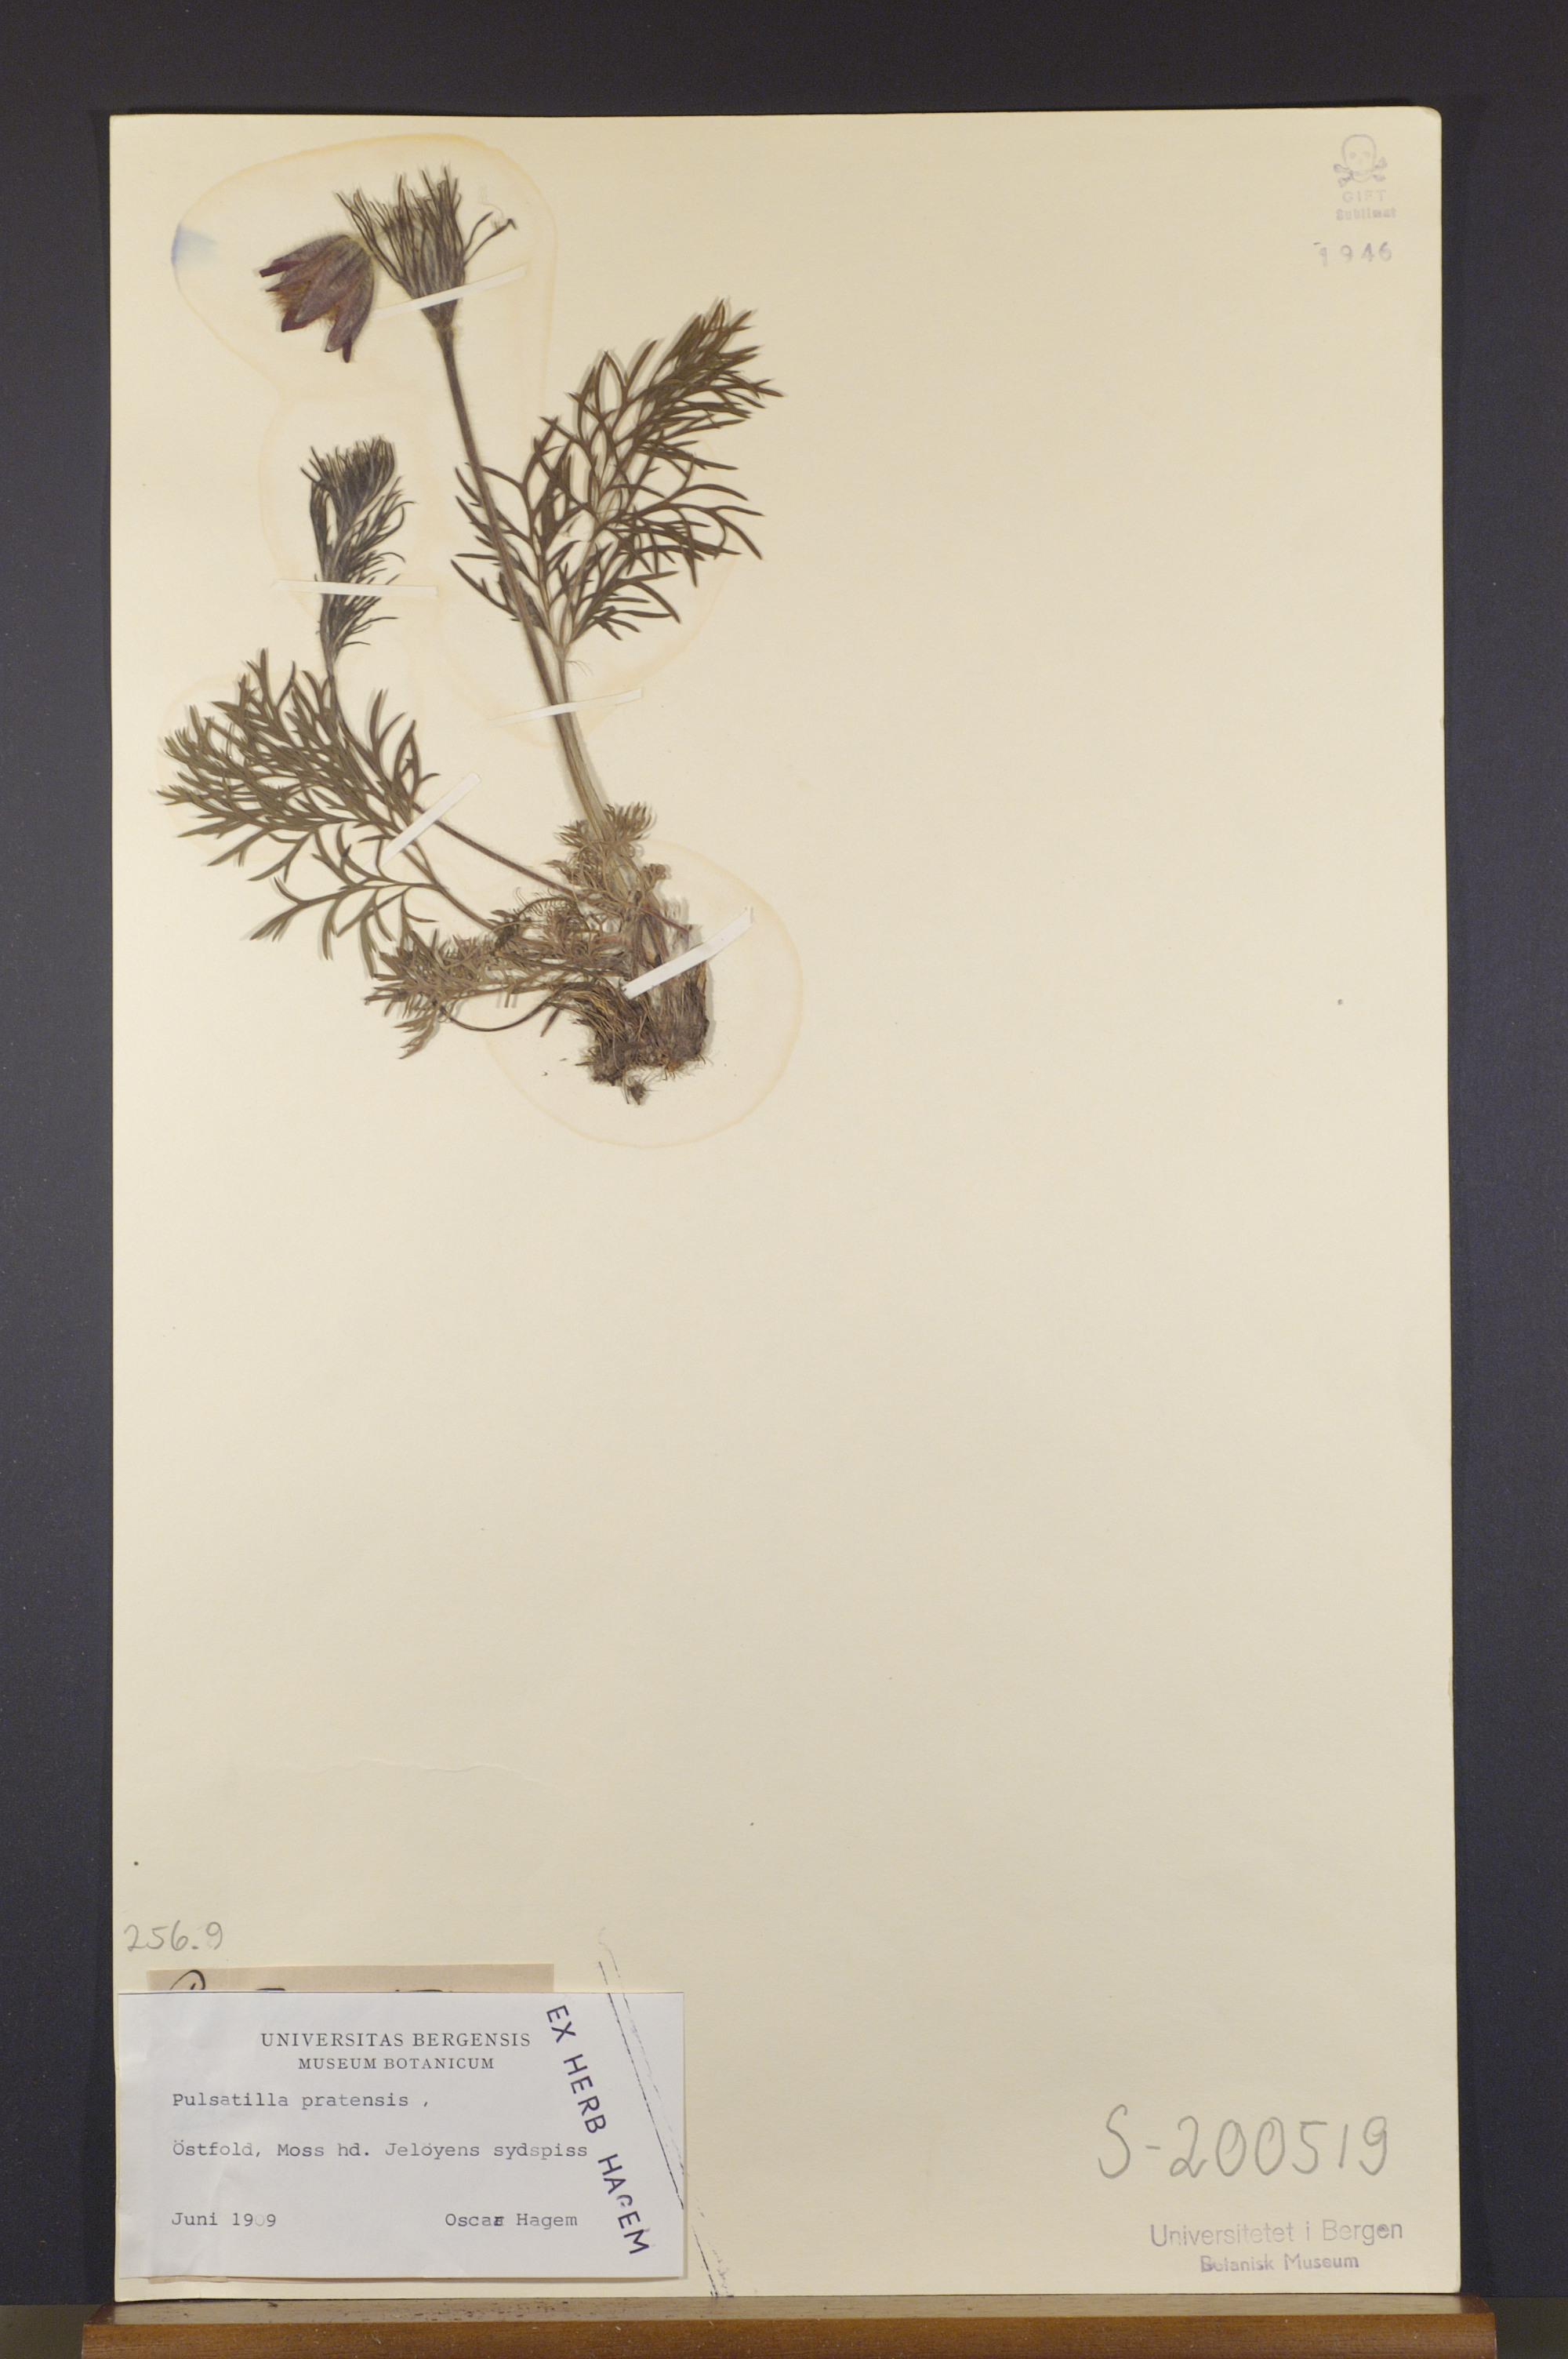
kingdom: Plantae
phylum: Tracheophyta
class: Magnoliopsida
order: Ranunculales
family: Ranunculaceae
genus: Pulsatilla
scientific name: Pulsatilla pratensis
